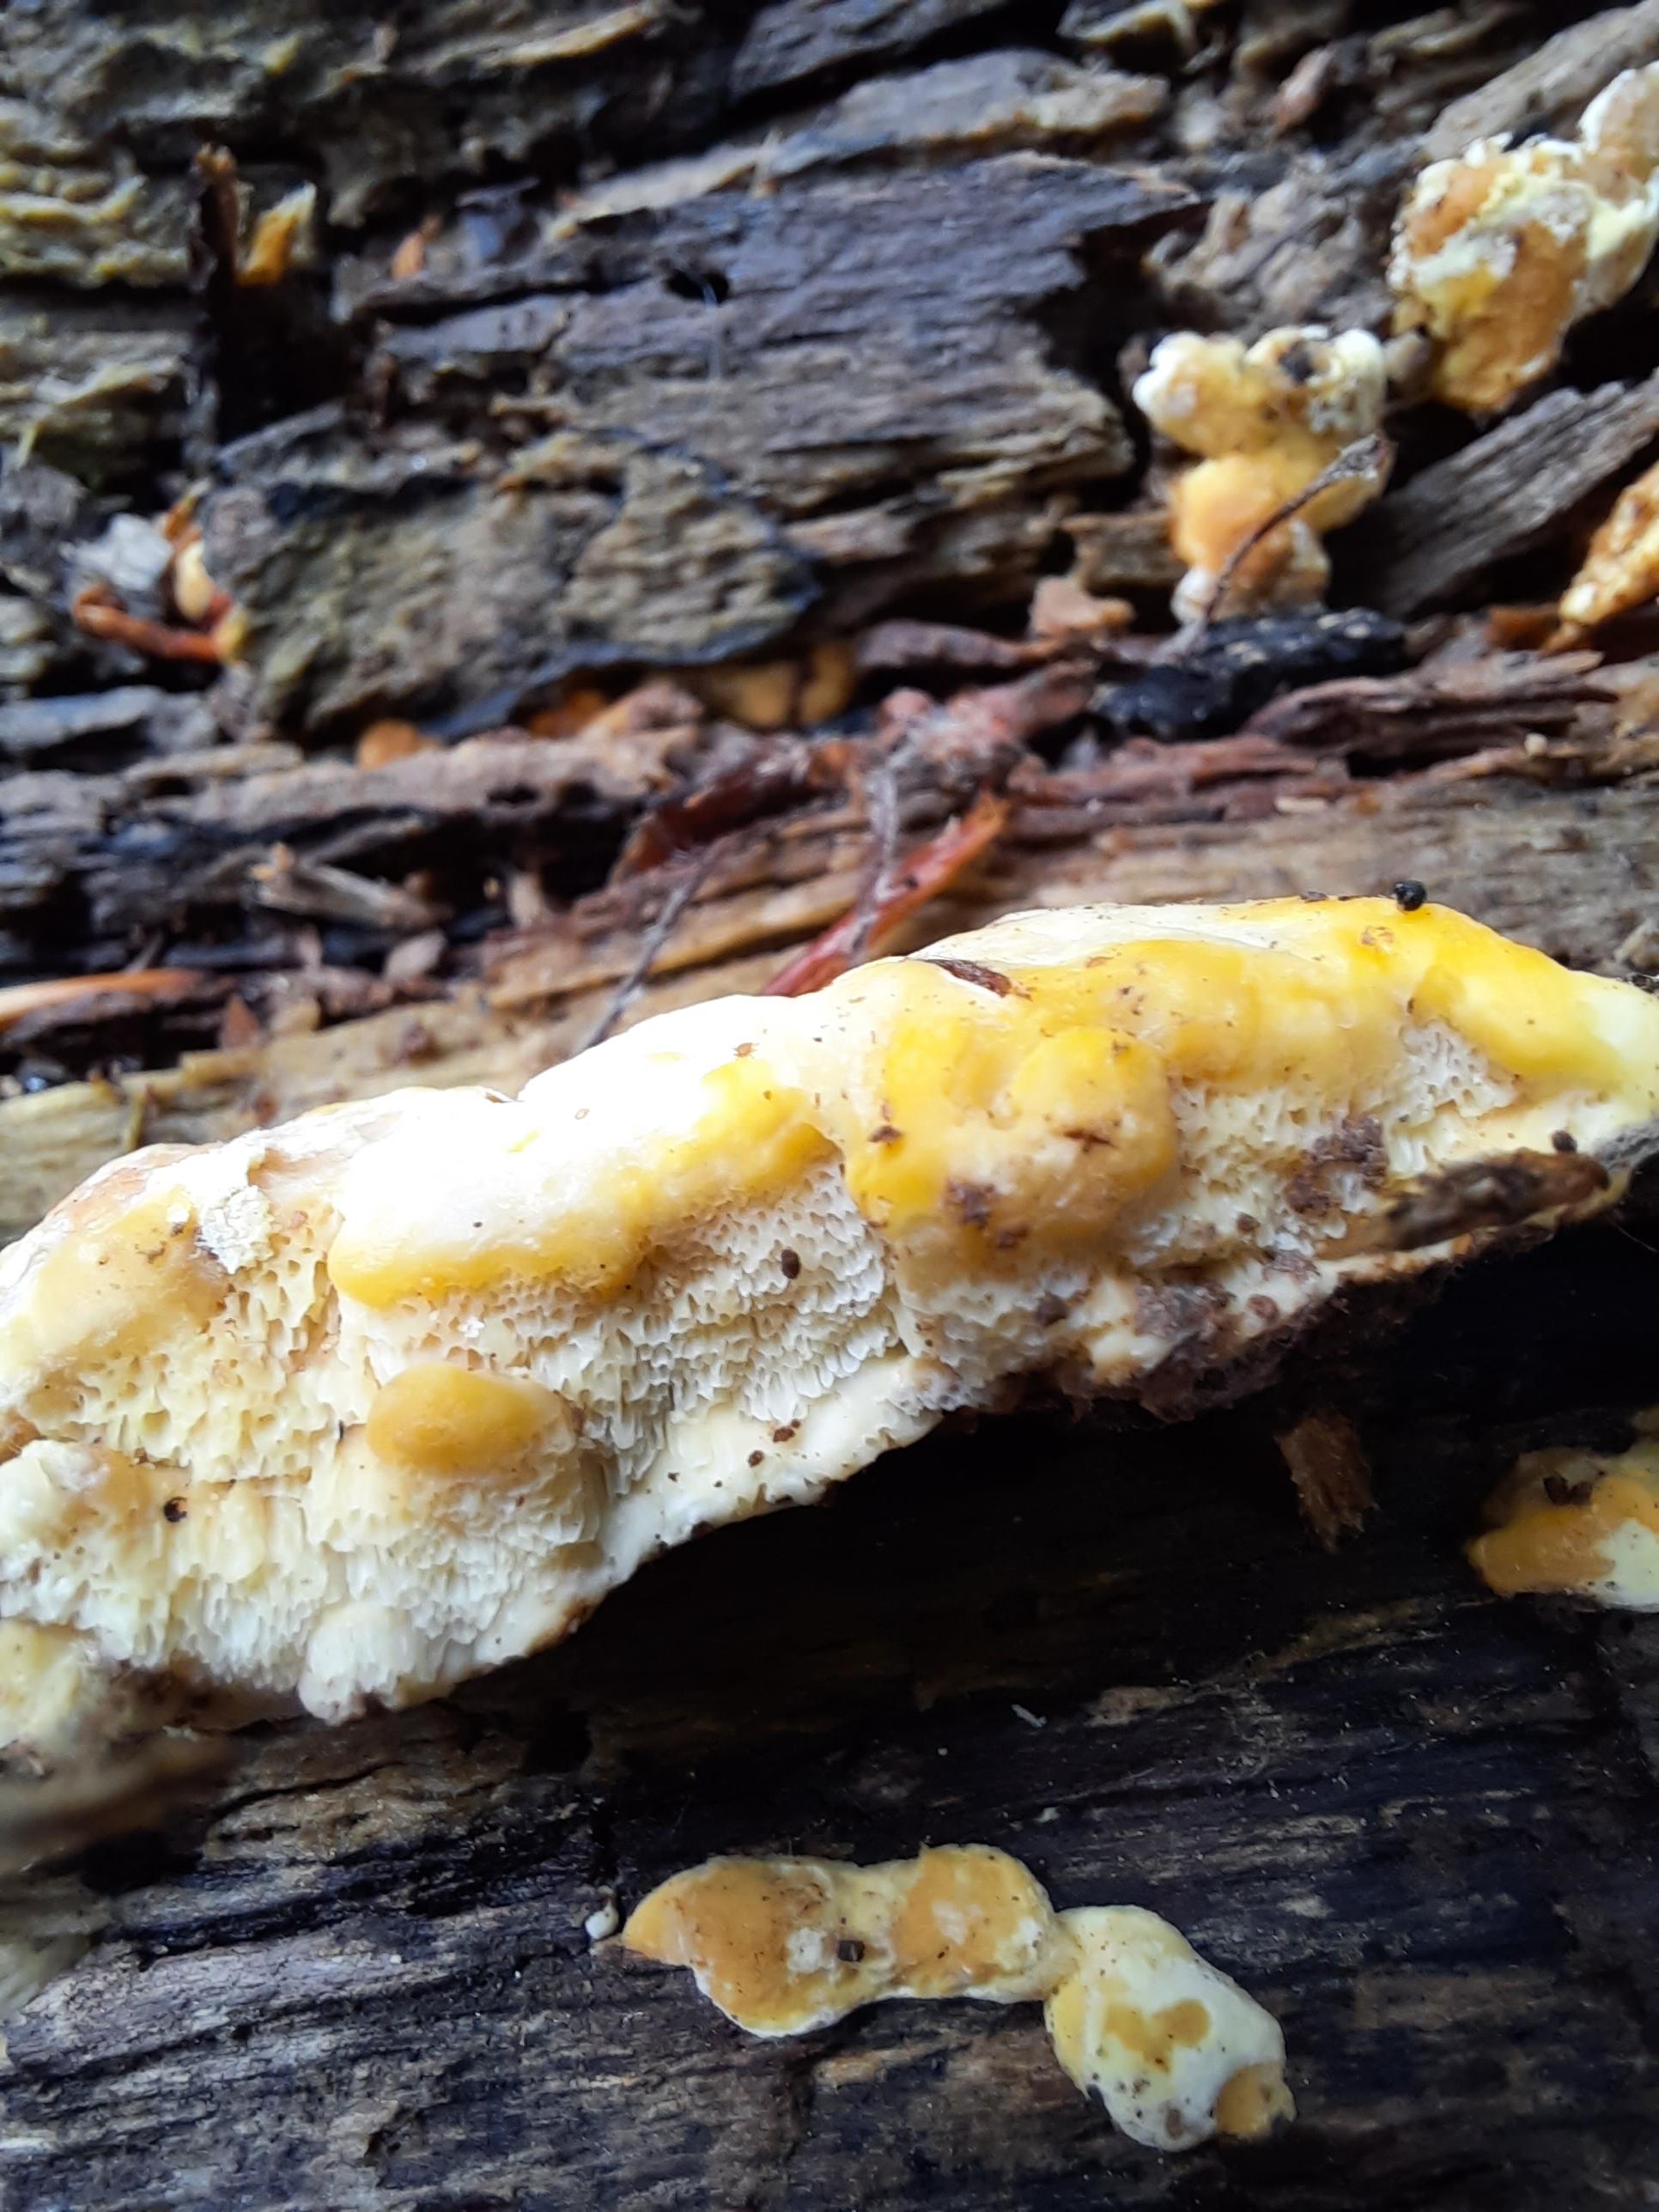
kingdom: Fungi
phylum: Basidiomycota
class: Agaricomycetes
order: Polyporales
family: Steccherinaceae
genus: Antrodiella
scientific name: Antrodiella serpula
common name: gulrandet elastikporesvamp
